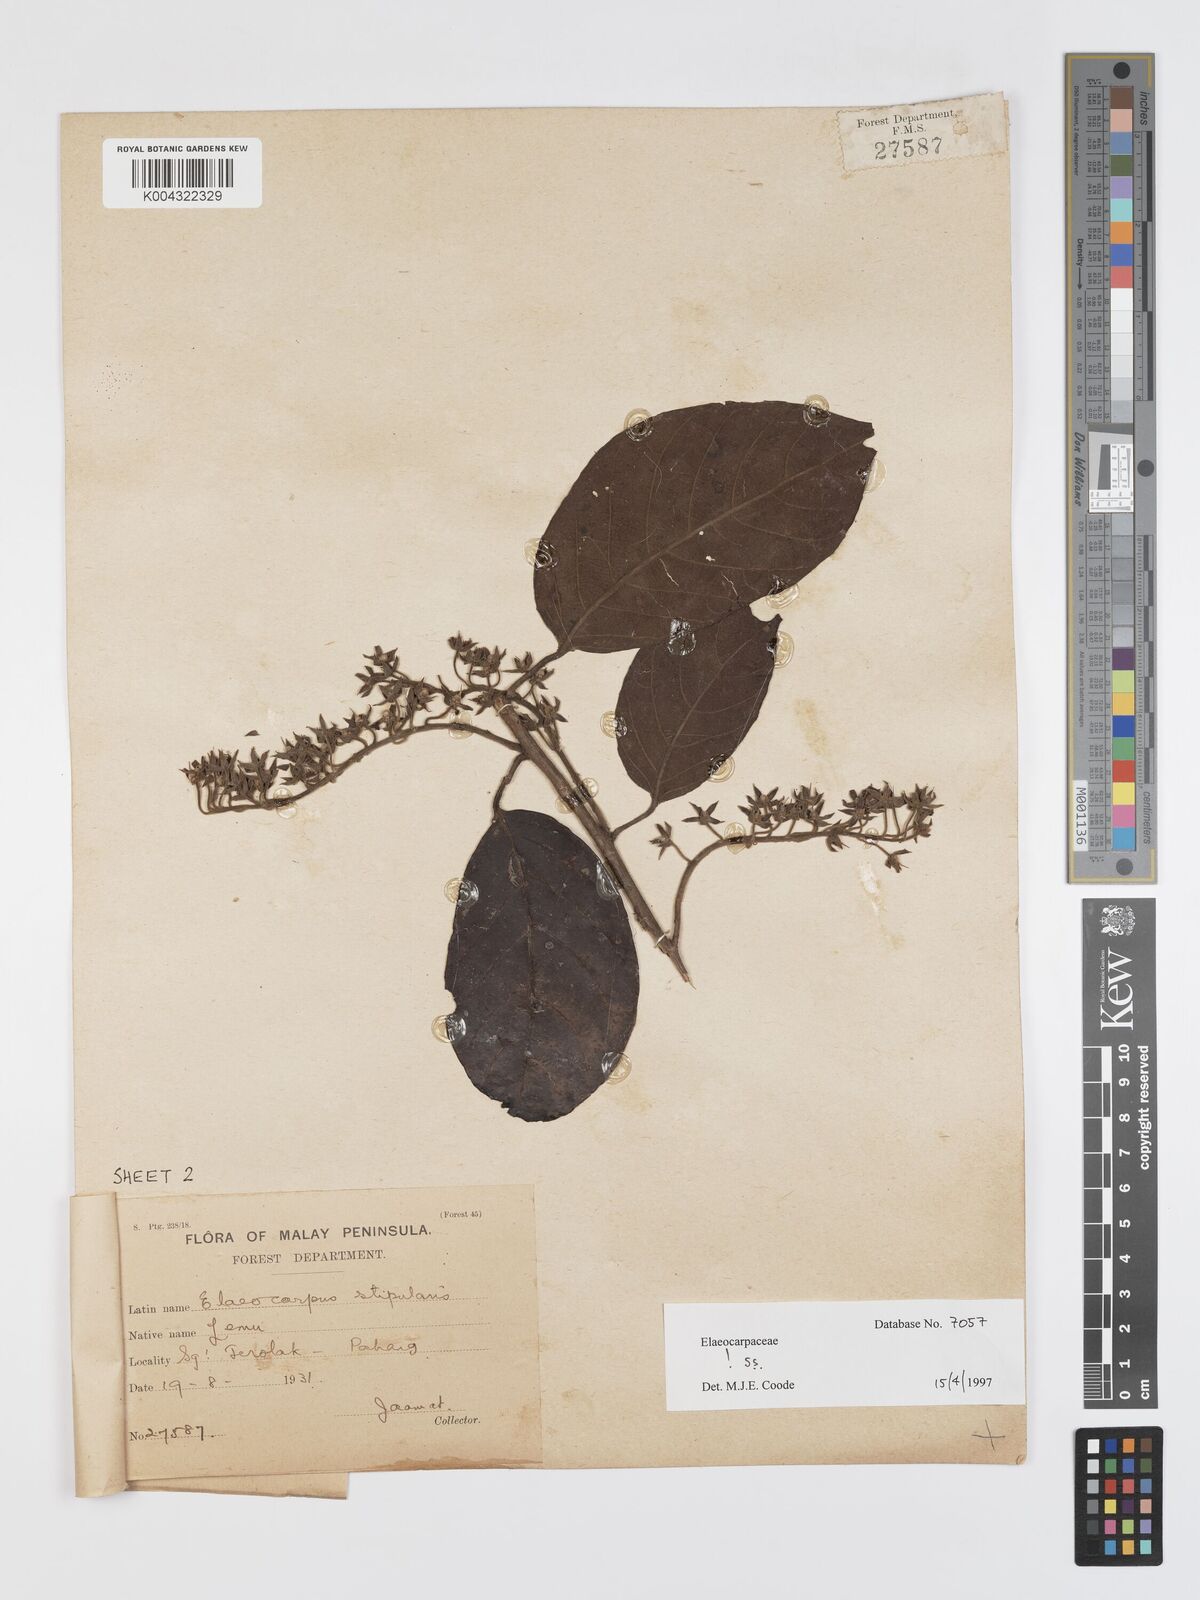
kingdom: Plantae
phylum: Tracheophyta
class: Magnoliopsida
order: Oxalidales
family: Elaeocarpaceae
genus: Elaeocarpus
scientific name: Elaeocarpus stipularis
